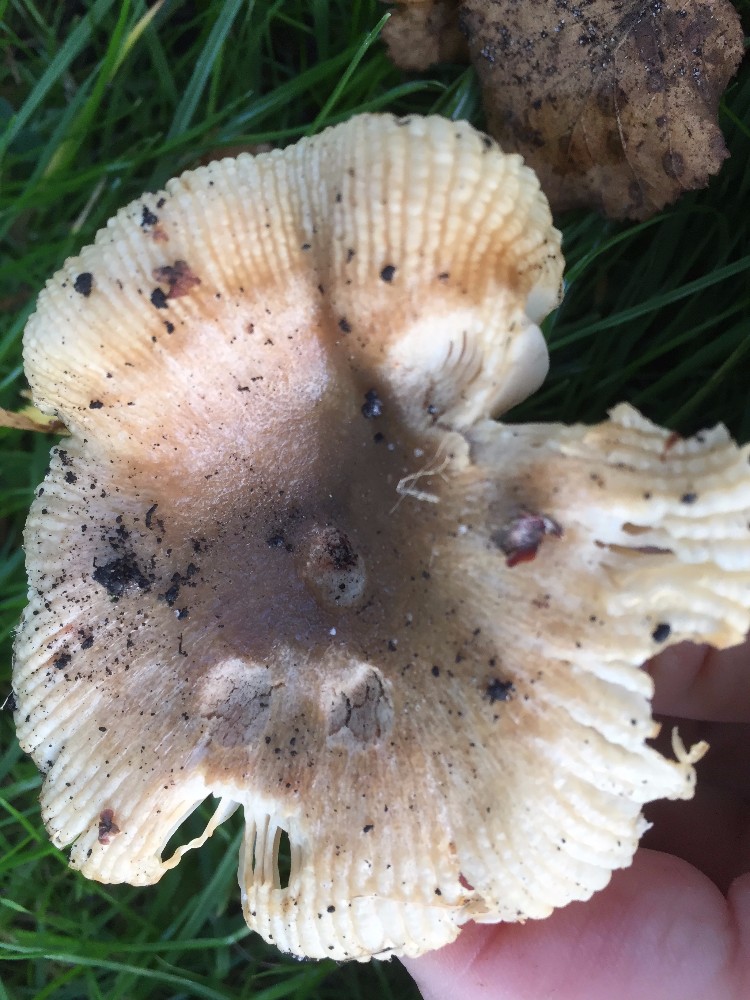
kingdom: Fungi
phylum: Basidiomycota
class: Agaricomycetes
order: Russulales
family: Russulaceae
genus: Russula
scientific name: Russula recondita
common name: mild kam-skørhat
